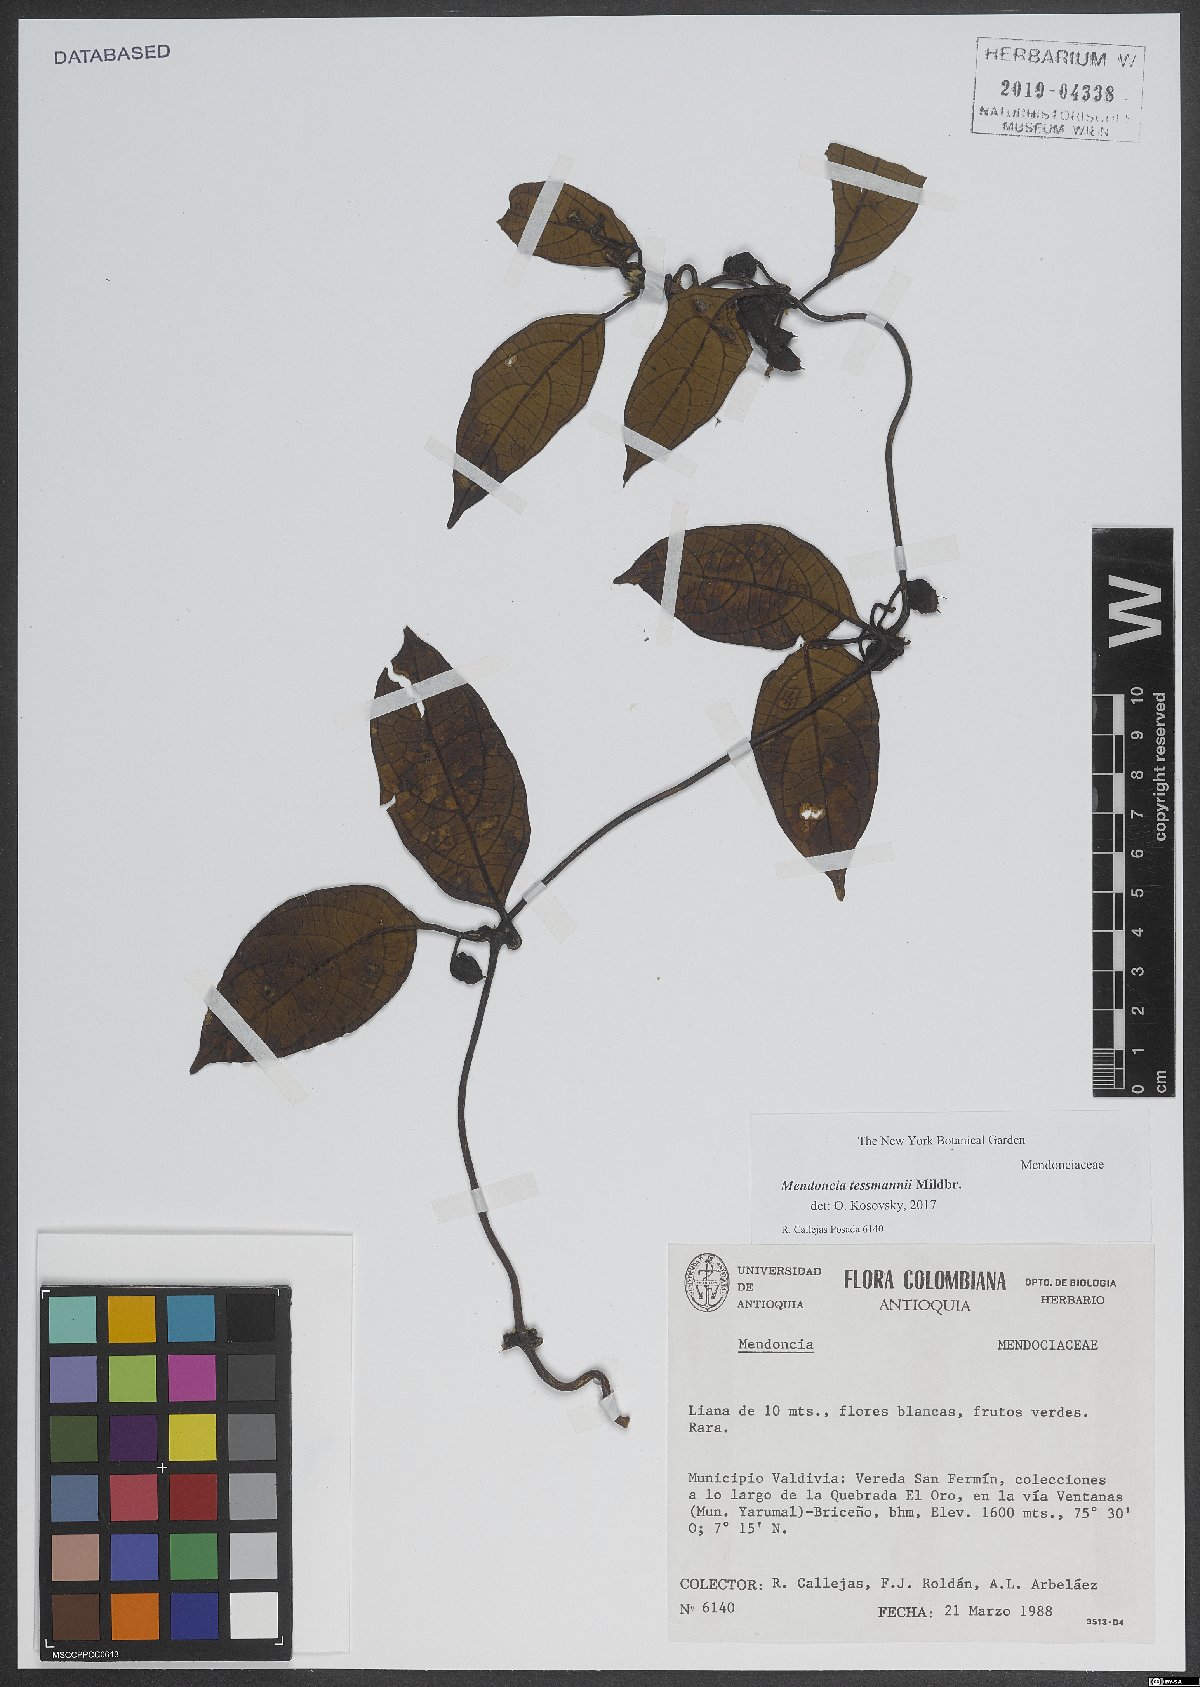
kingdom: Plantae
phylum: Tracheophyta
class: Magnoliopsida
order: Lamiales
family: Acanthaceae
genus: Mendoncia
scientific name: Mendoncia tessmannii
